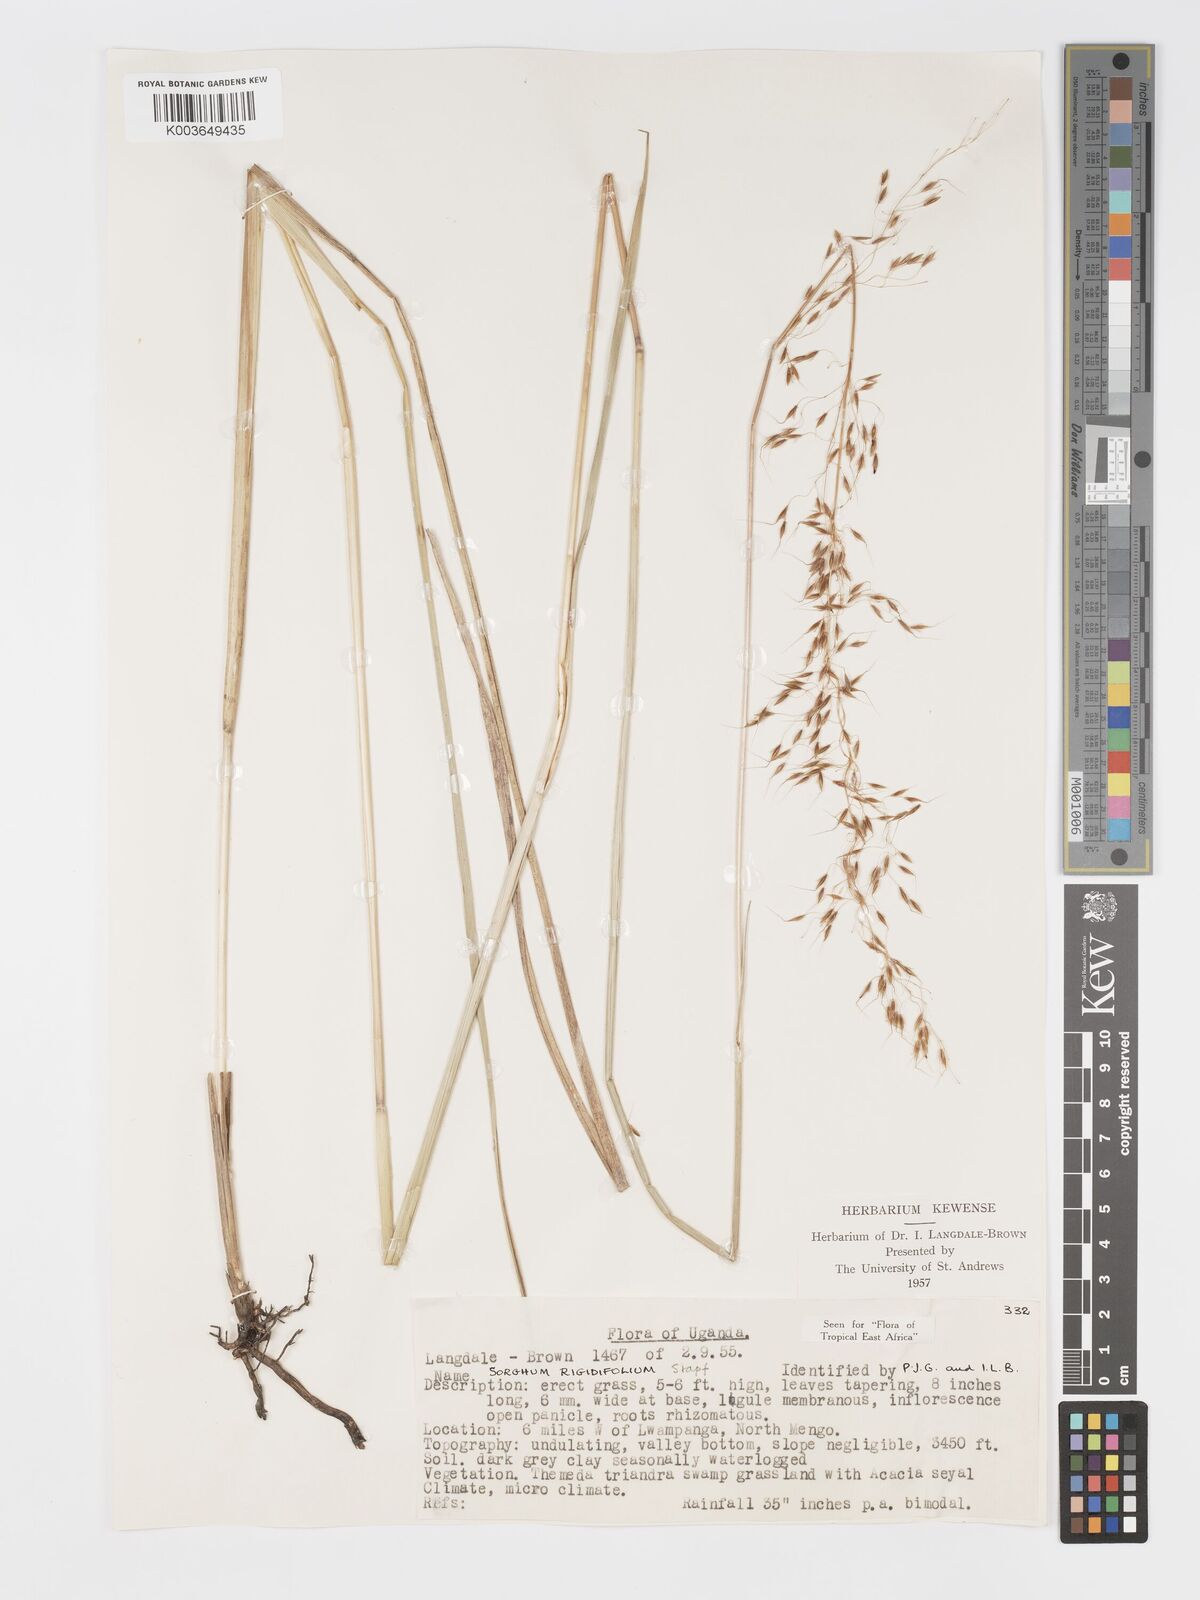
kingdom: Plantae
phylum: Tracheophyta
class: Liliopsida
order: Poales
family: Poaceae
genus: Sorghastrum
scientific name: Sorghastrum stipoides
